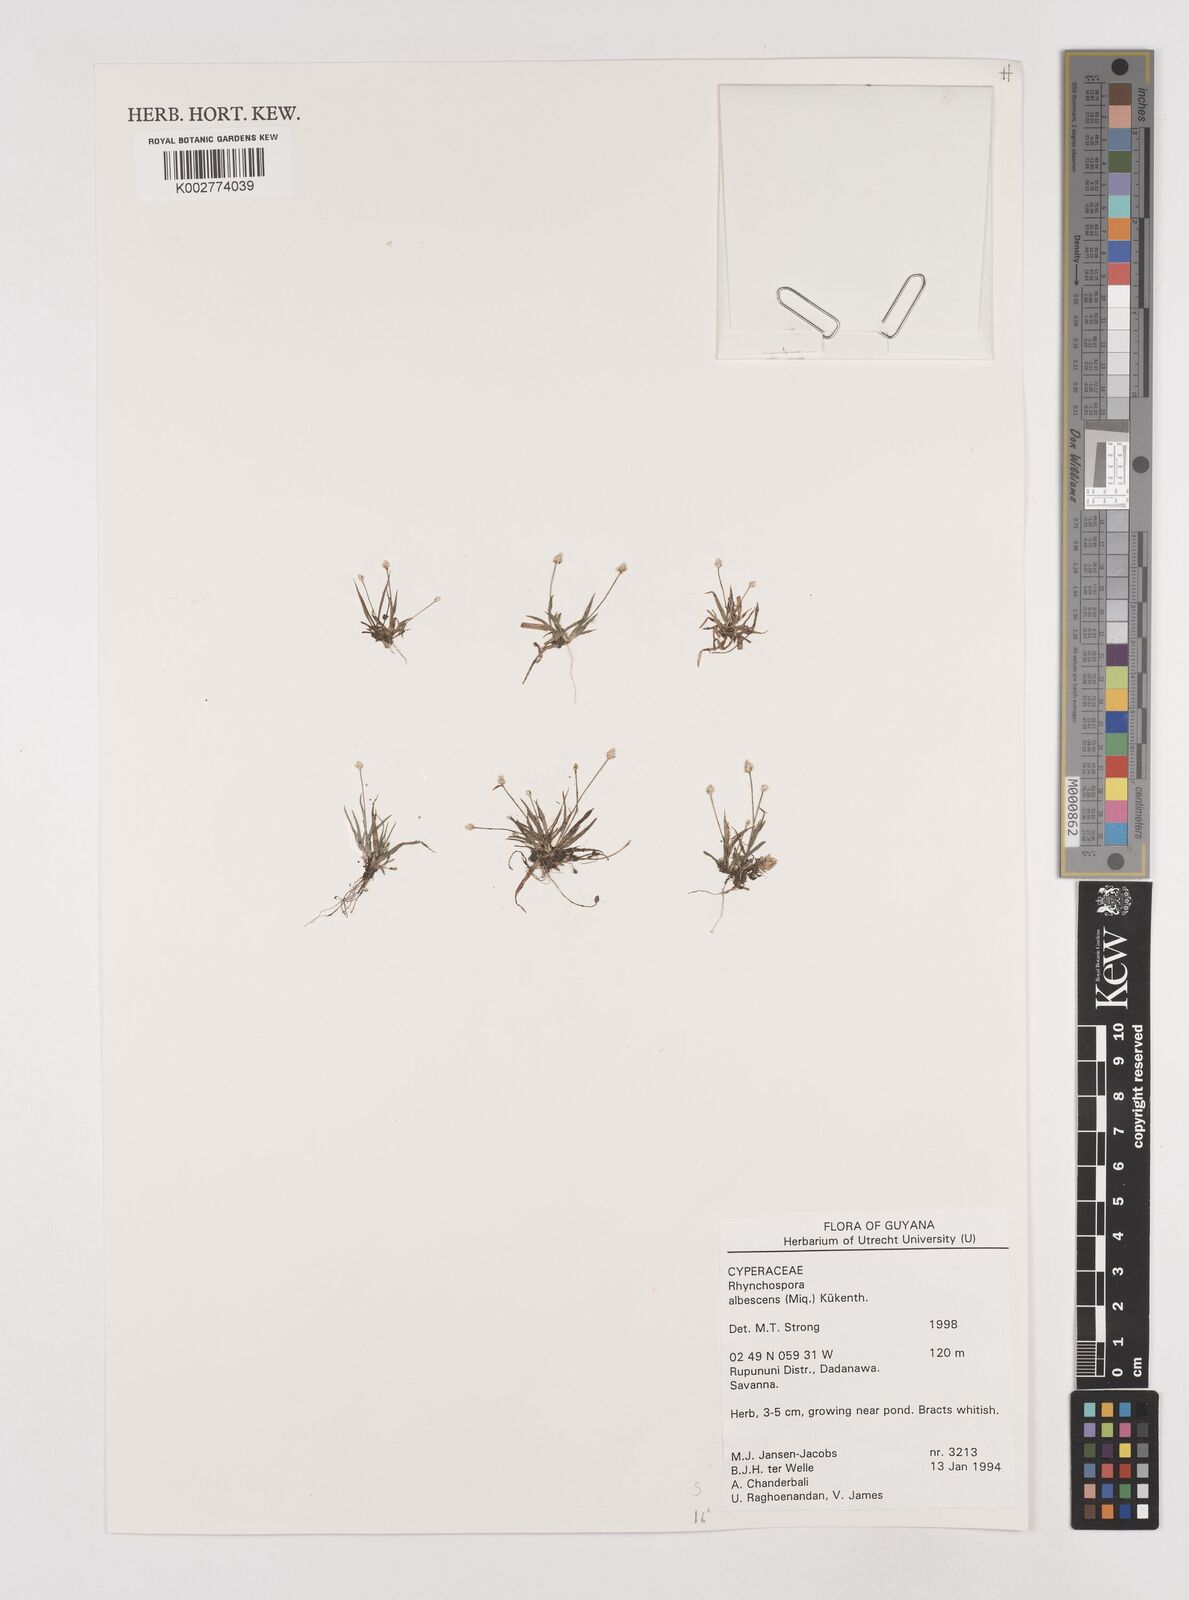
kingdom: Plantae
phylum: Tracheophyta
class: Liliopsida
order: Poales
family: Cyperaceae
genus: Rhynchospora
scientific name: Rhynchospora albescens
